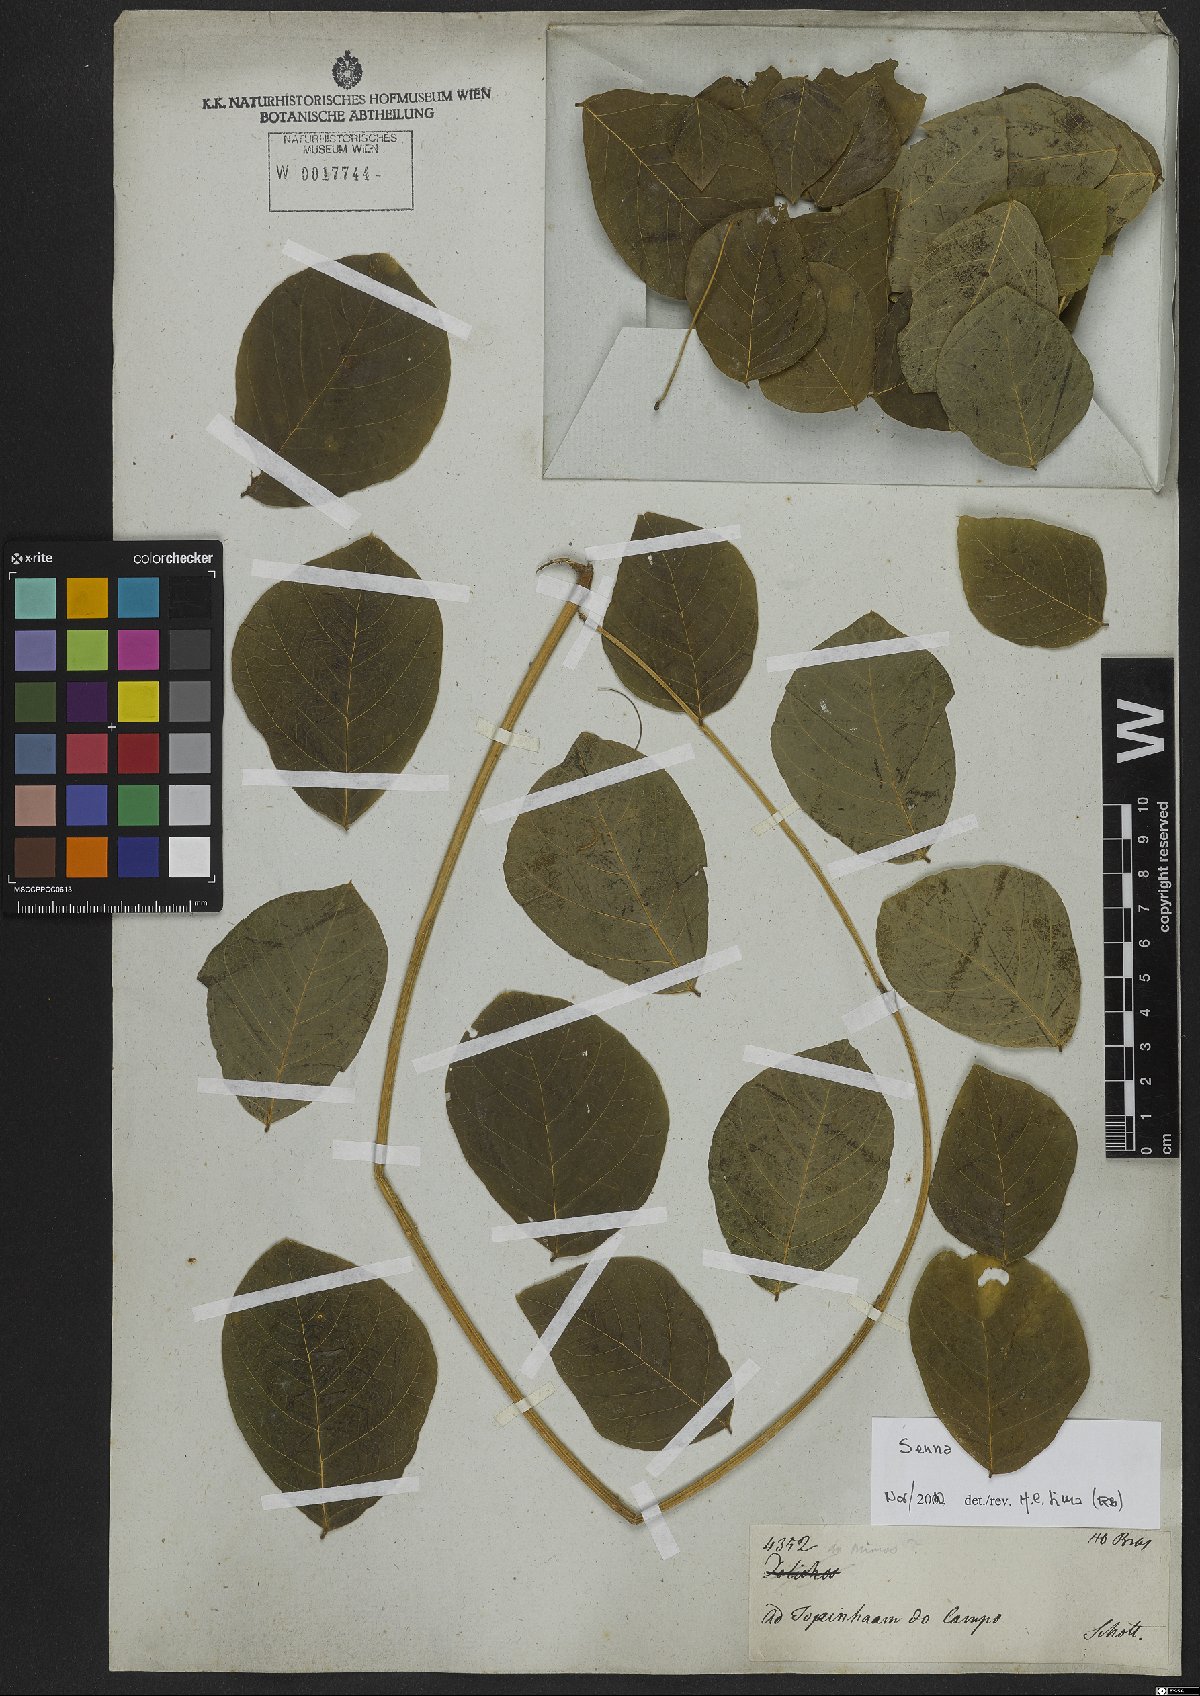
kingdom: Plantae
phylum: Tracheophyta
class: Magnoliopsida
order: Fabales
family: Fabaceae
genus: Senna
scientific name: Senna
